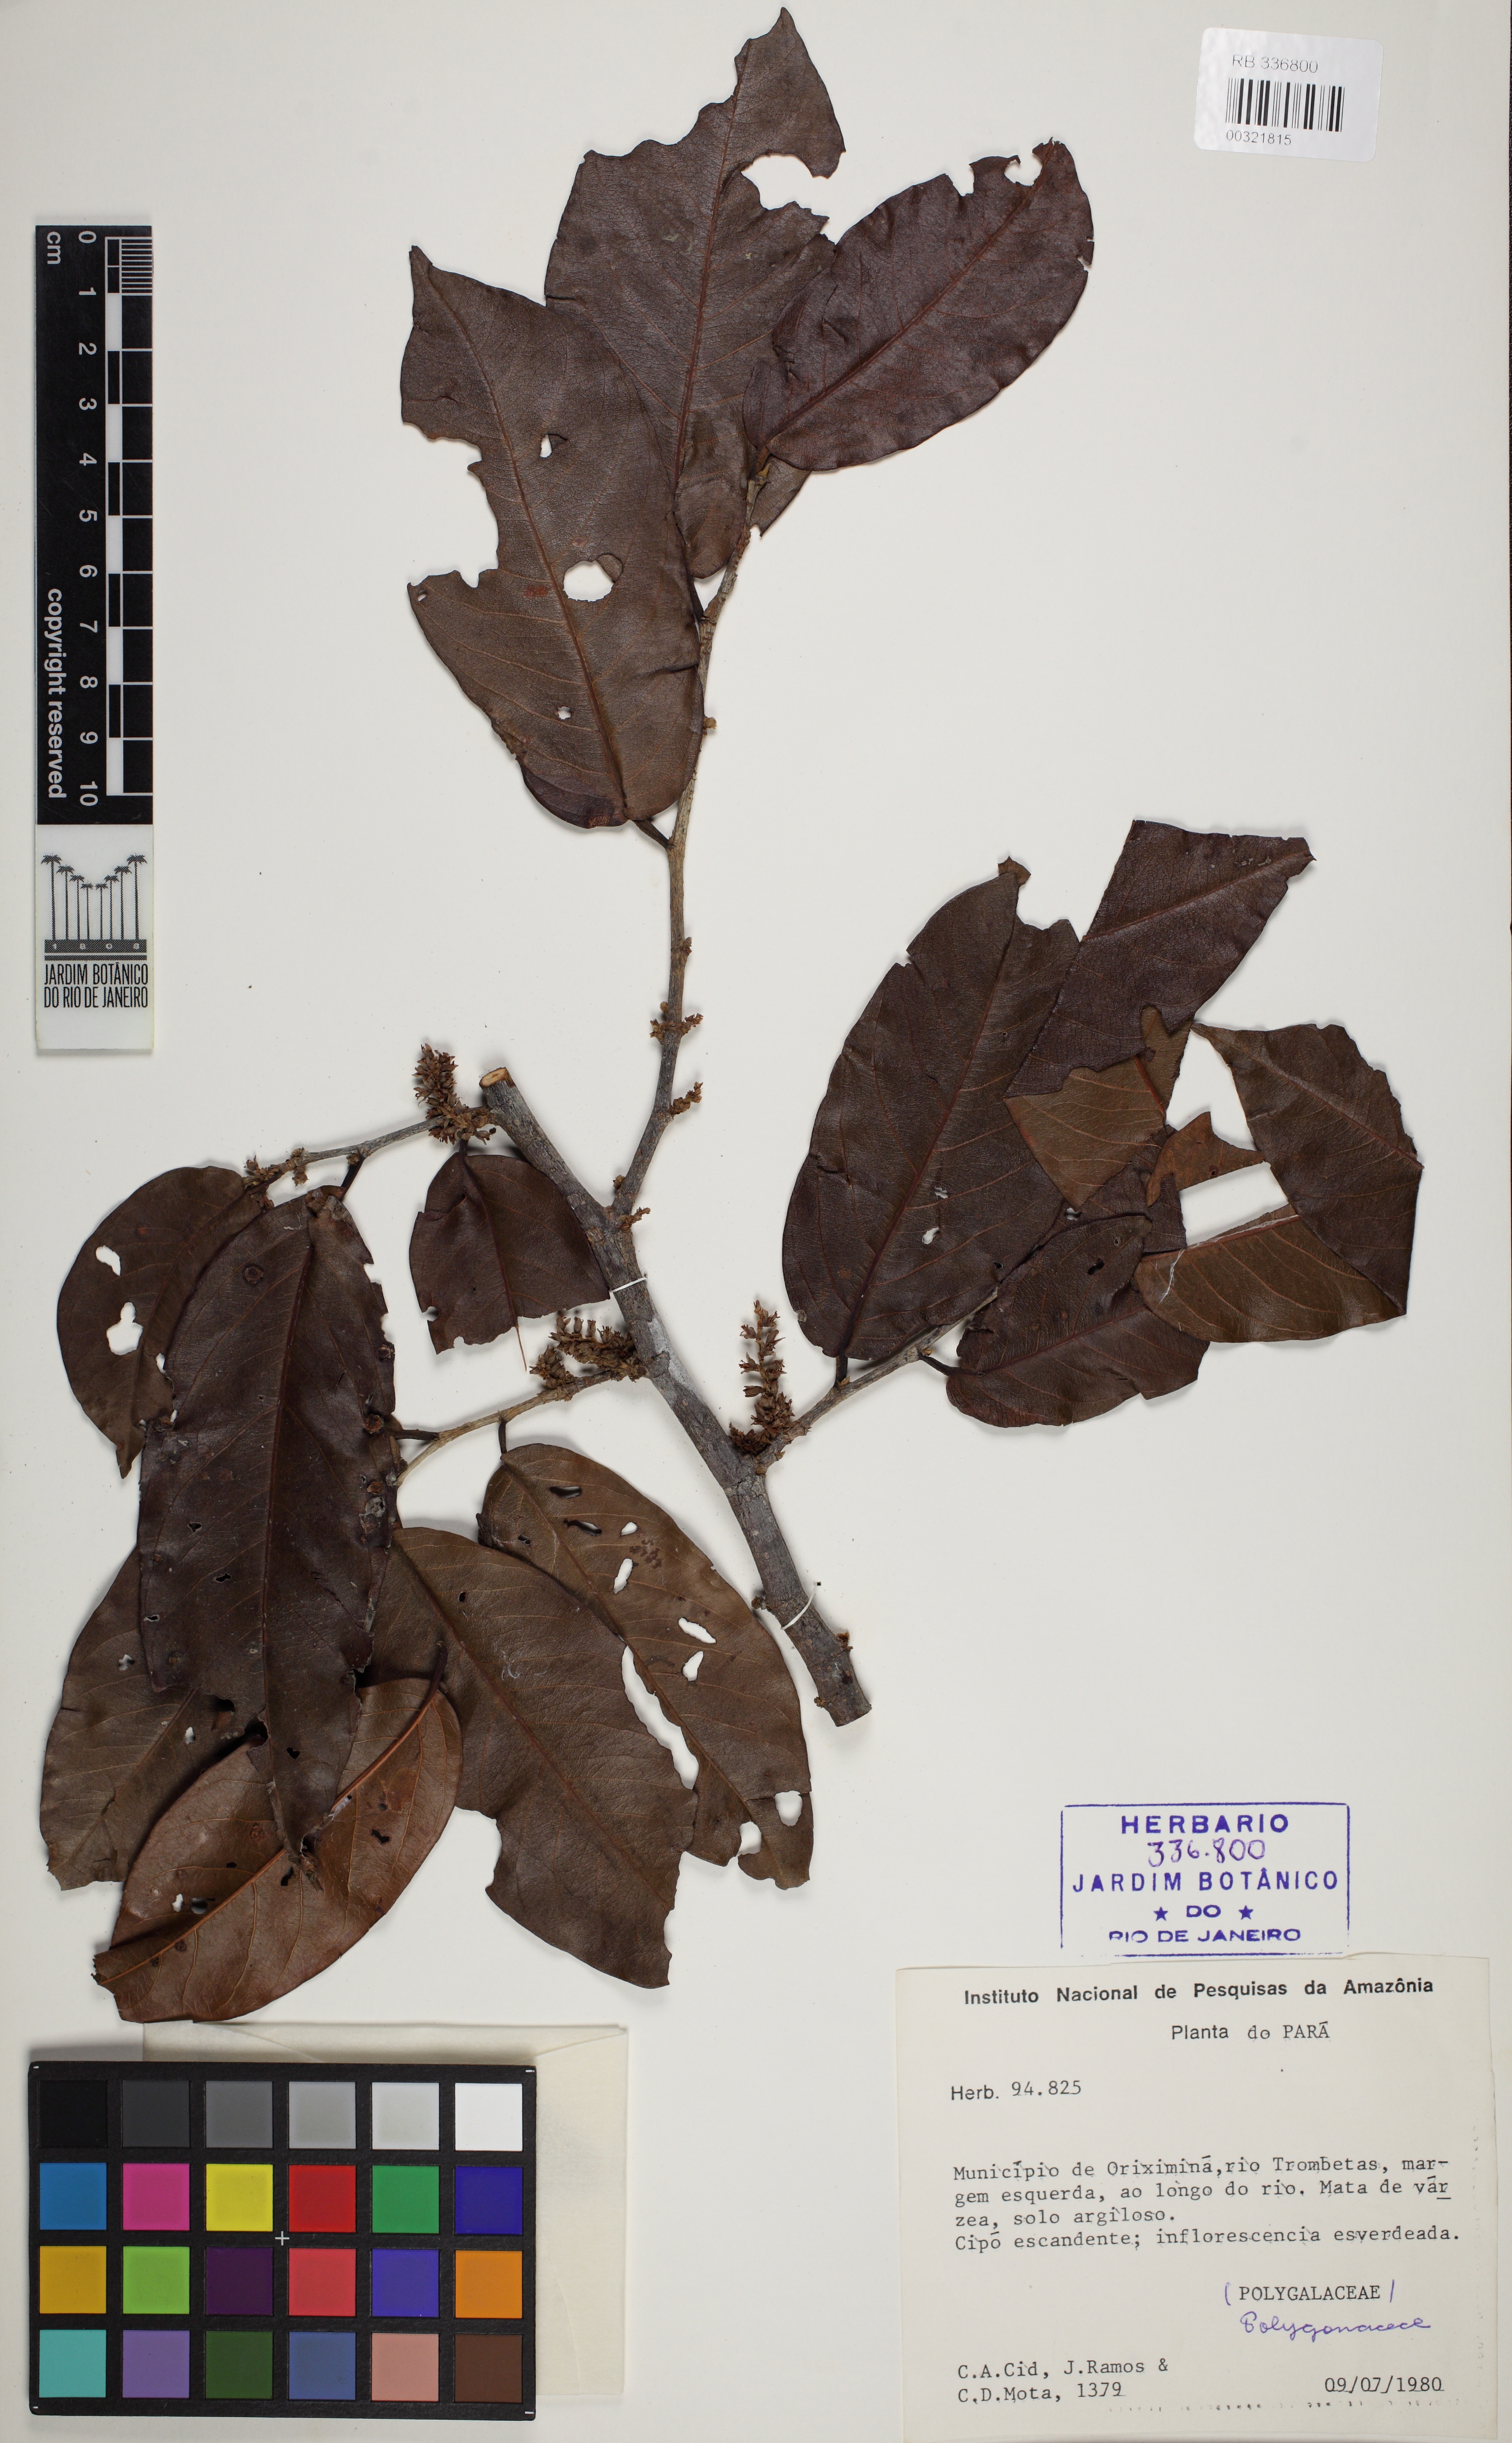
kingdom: Plantae
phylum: Tracheophyta
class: Magnoliopsida
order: Caryophyllales
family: Polygonaceae
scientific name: Polygonaceae
